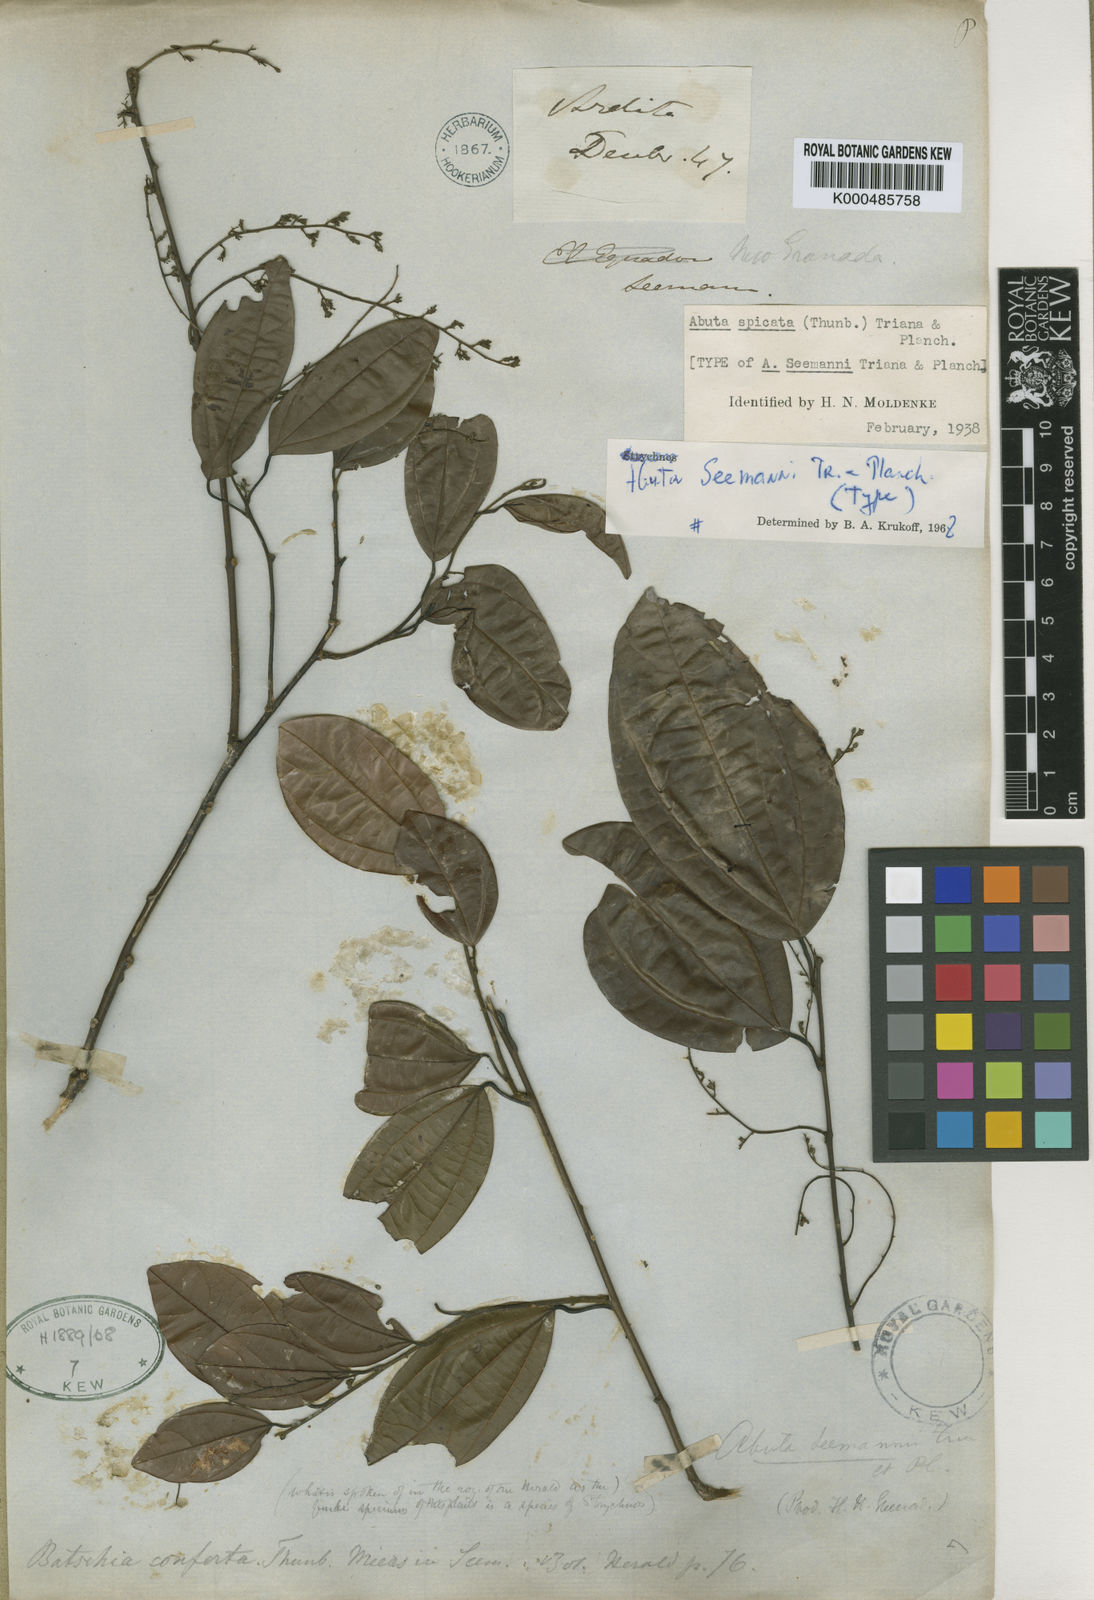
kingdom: Plantae
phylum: Tracheophyta
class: Magnoliopsida
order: Ranunculales
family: Menispermaceae
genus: Abuta
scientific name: Abuta seemannii
